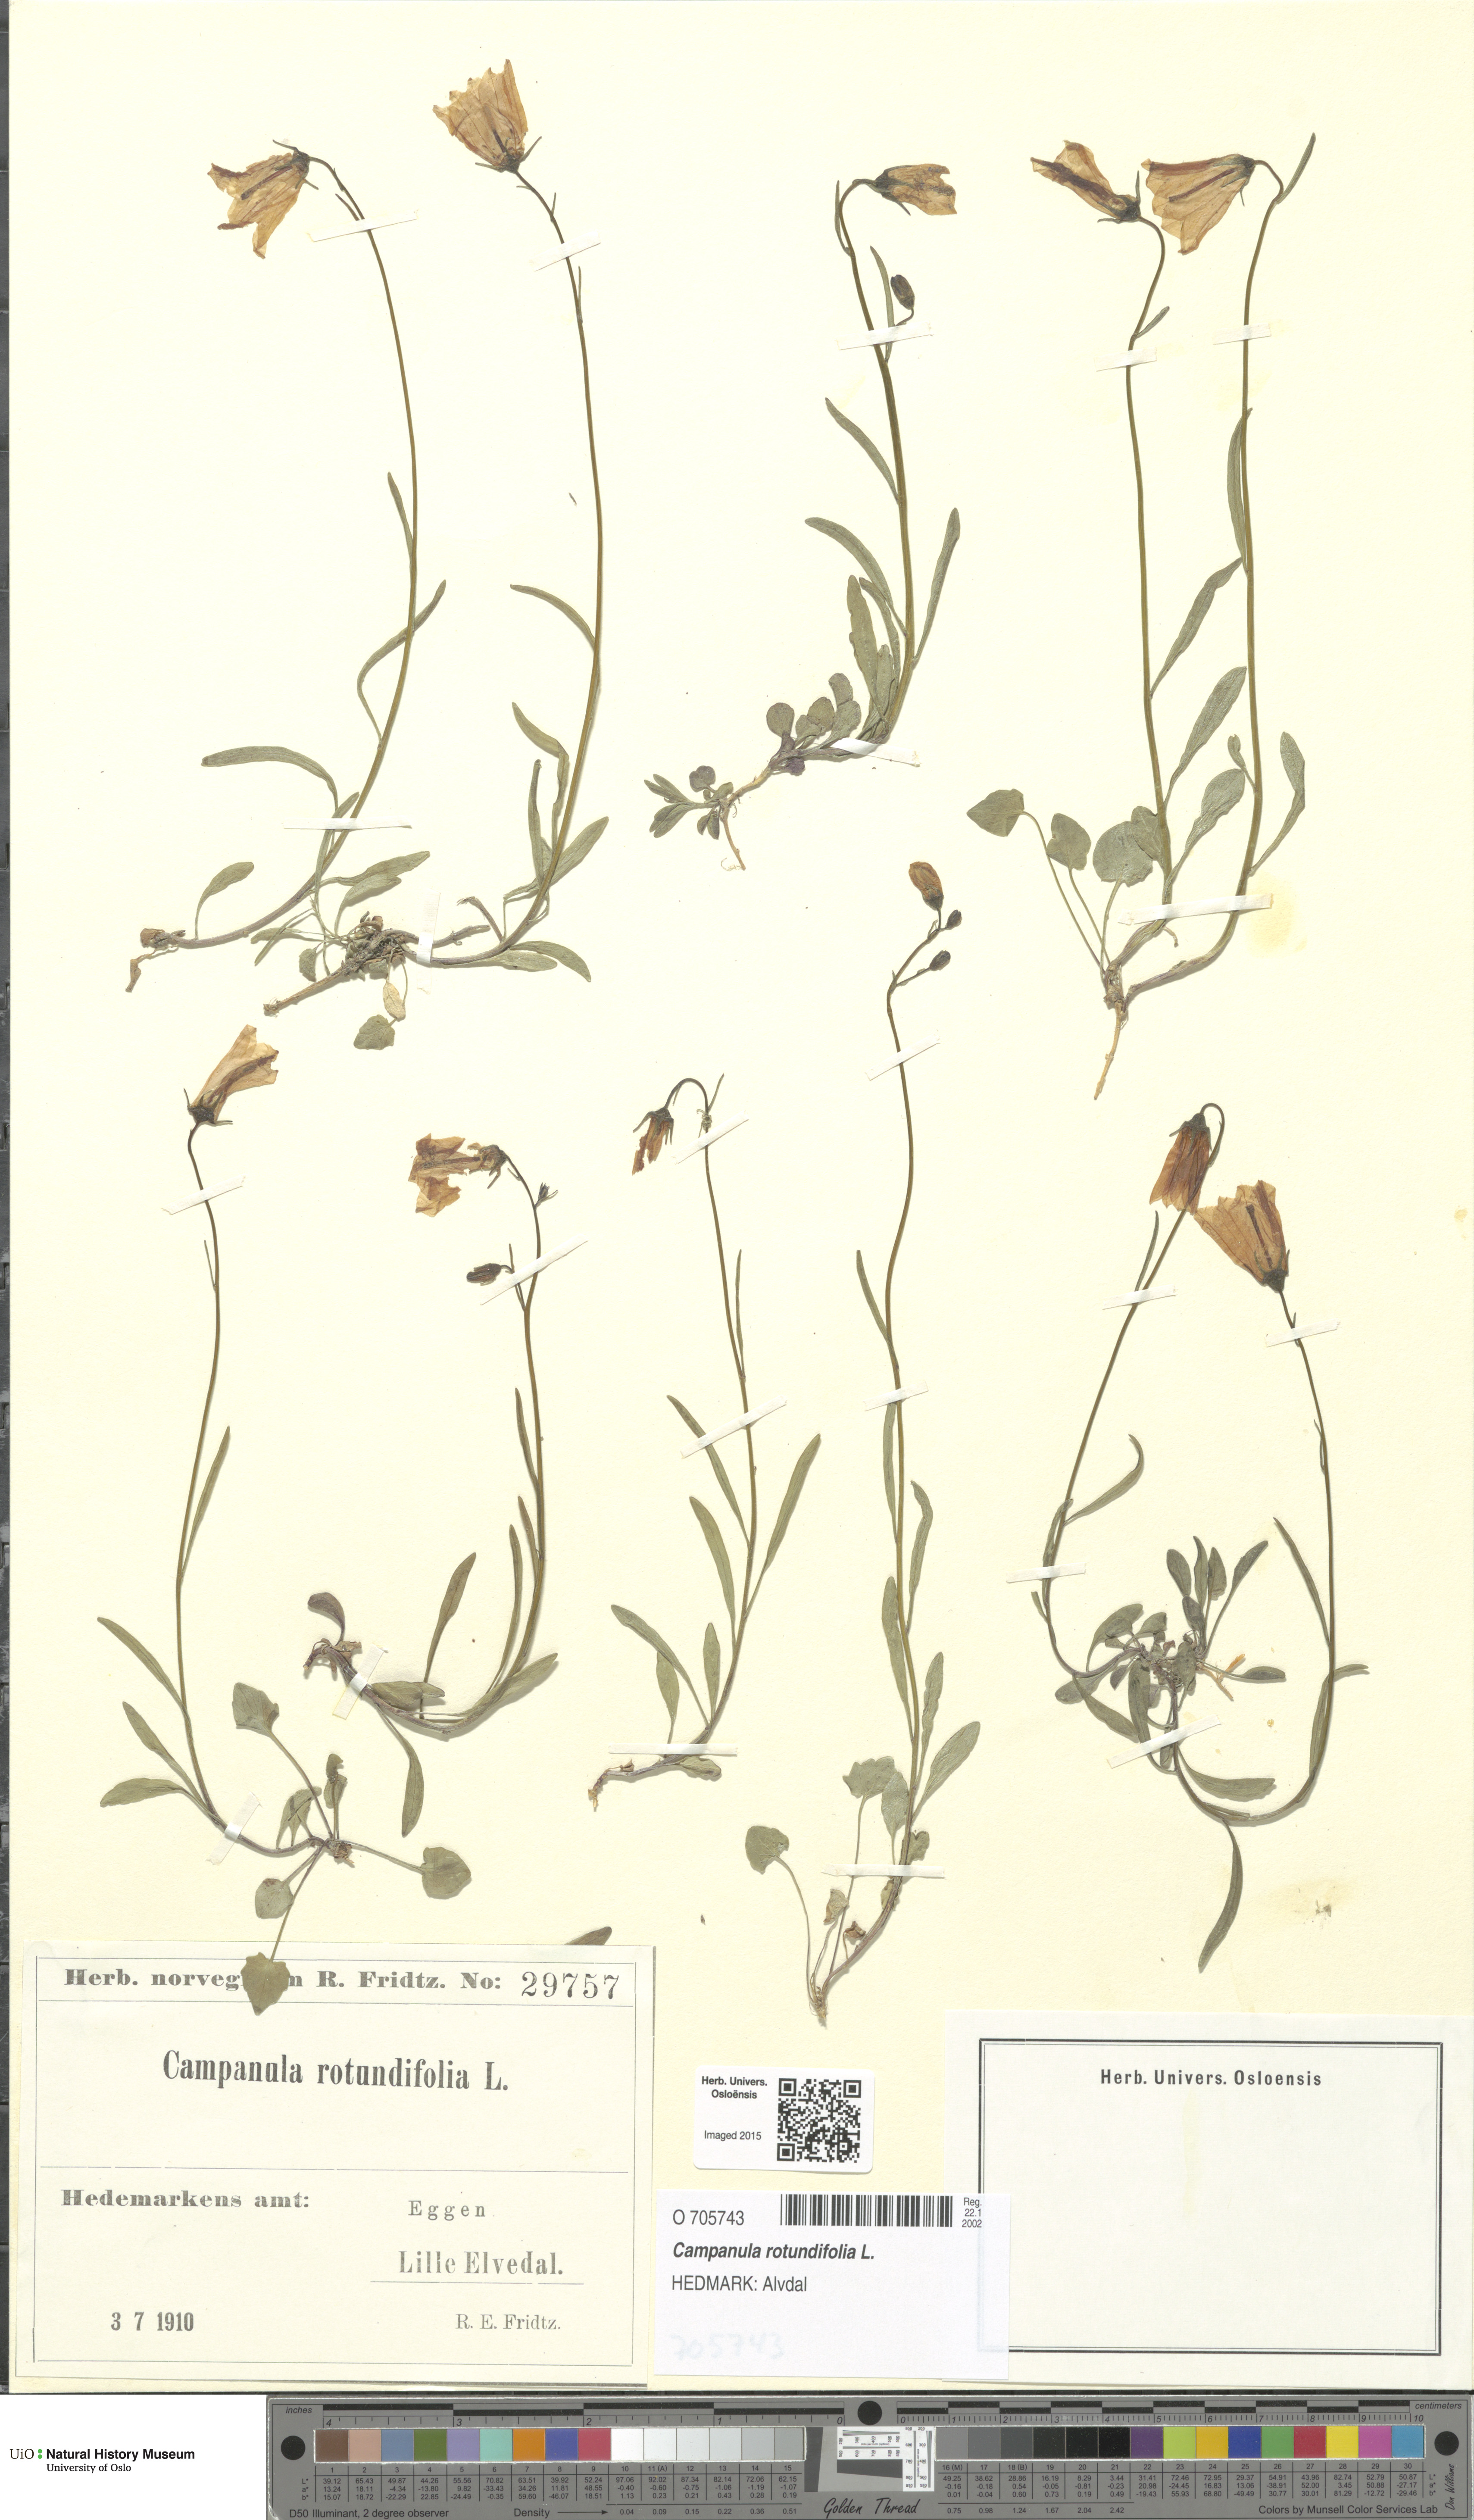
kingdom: Plantae
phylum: Tracheophyta
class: Magnoliopsida
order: Asterales
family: Campanulaceae
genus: Campanula
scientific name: Campanula rotundifolia
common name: Harebell
